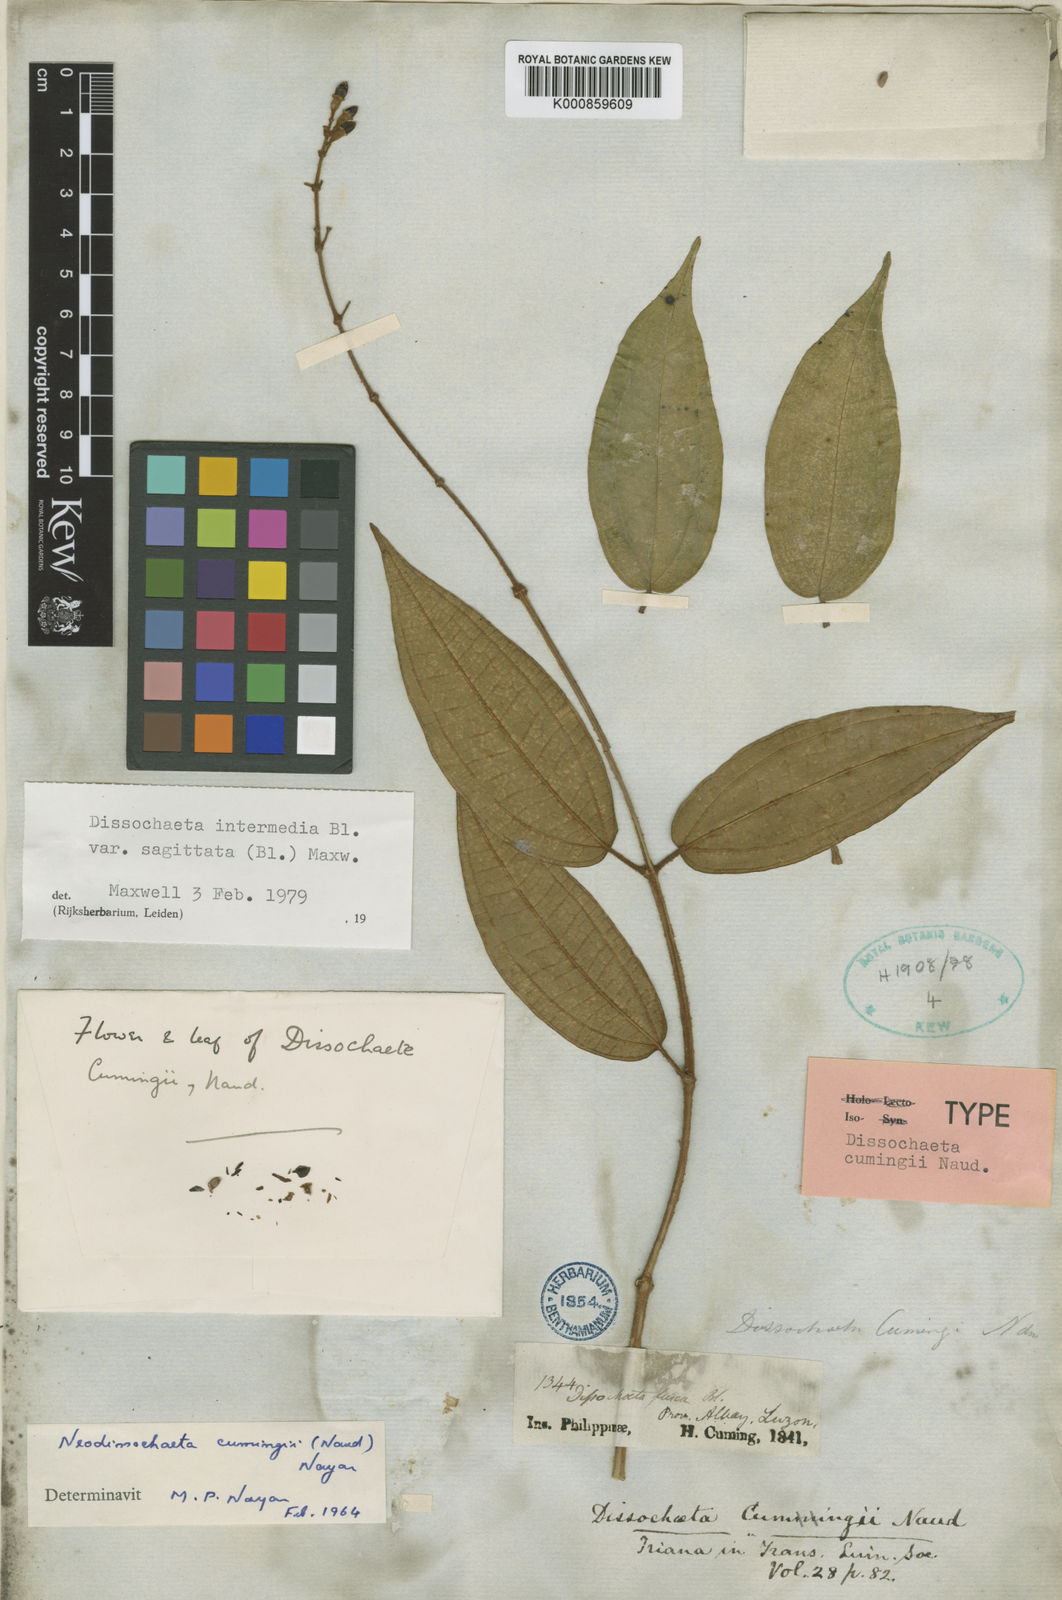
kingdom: Plantae
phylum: Tracheophyta
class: Magnoliopsida
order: Myrtales
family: Melastomataceae
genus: Dissochaeta
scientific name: Dissochaeta sagittata
